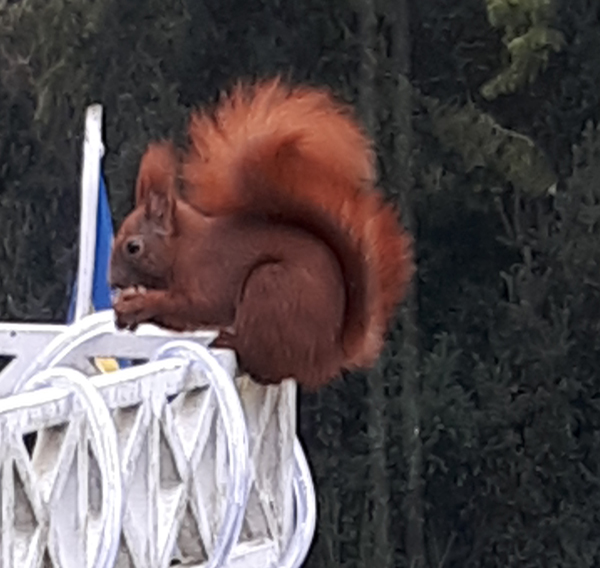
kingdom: Animalia
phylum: Chordata
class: Mammalia
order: Rodentia
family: Sciuridae
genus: Sciurus
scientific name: Sciurus vulgaris
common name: Eurasian red squirrel
